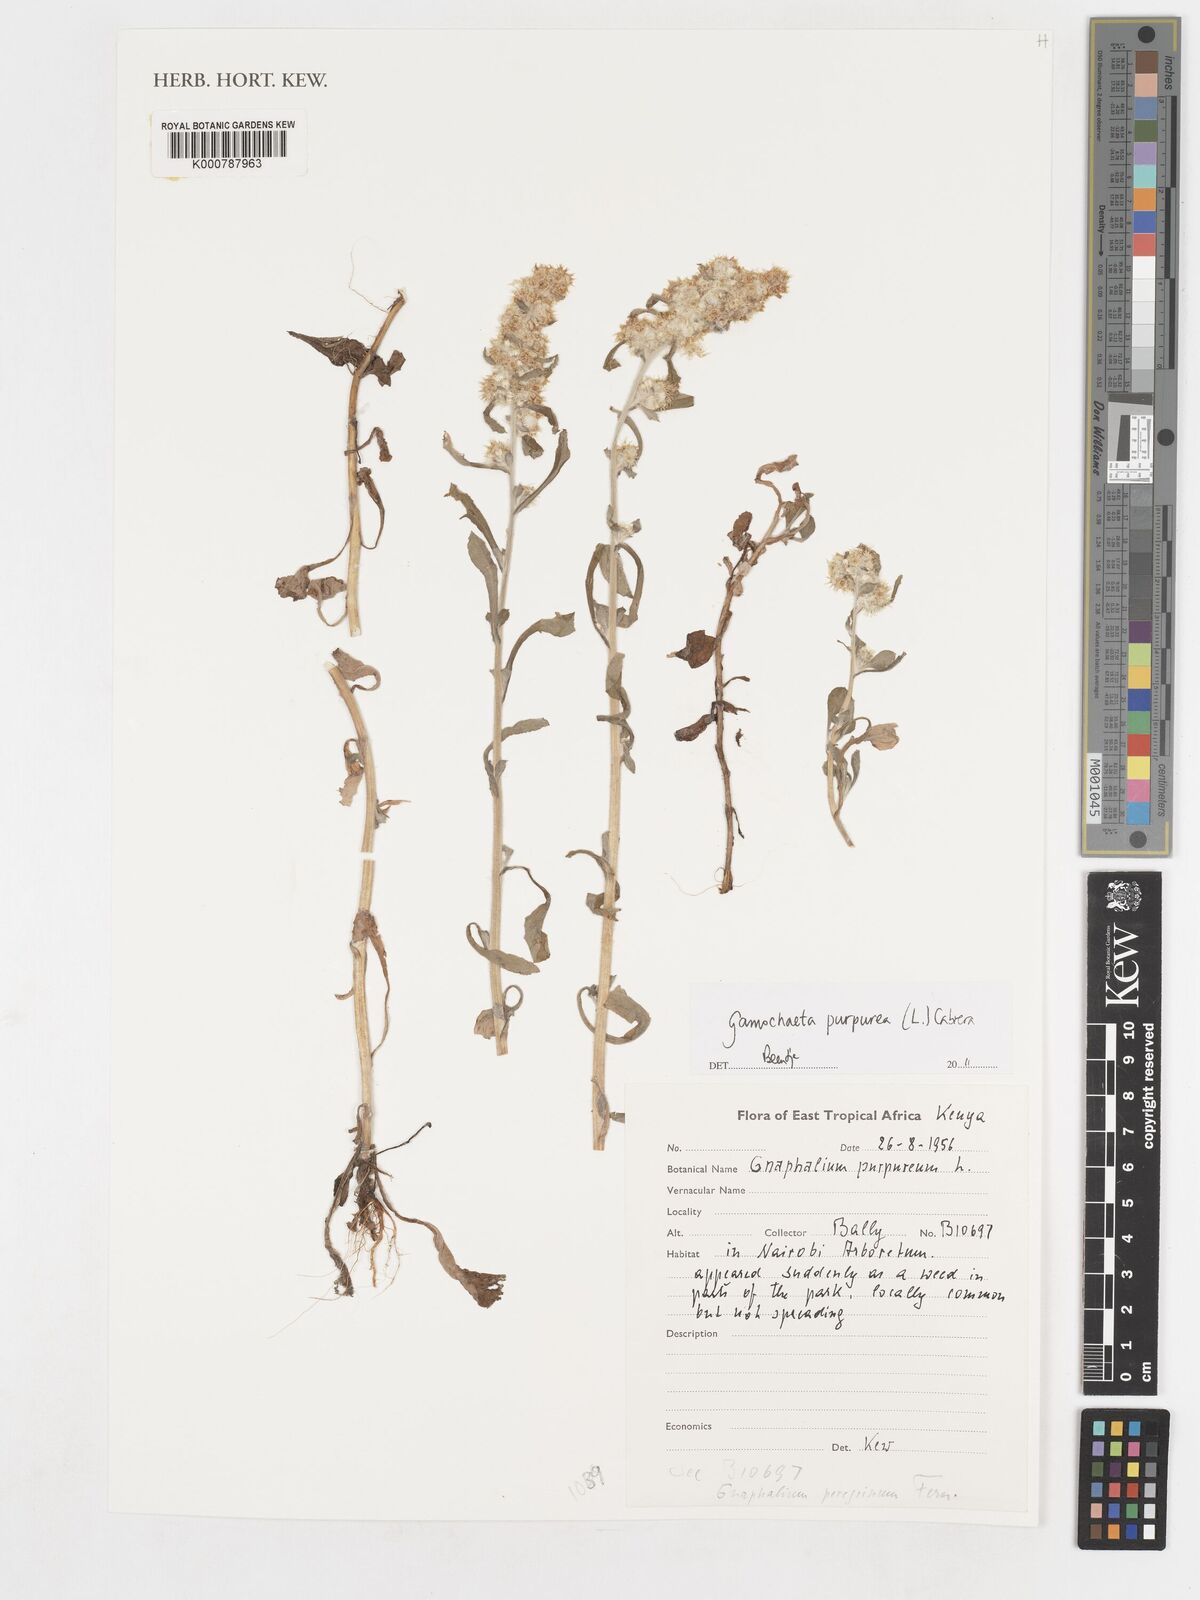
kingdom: Plantae
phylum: Tracheophyta
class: Magnoliopsida
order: Asterales
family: Asteraceae
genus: Gamochaeta
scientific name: Gamochaeta purpurea
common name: Purple cudweed
